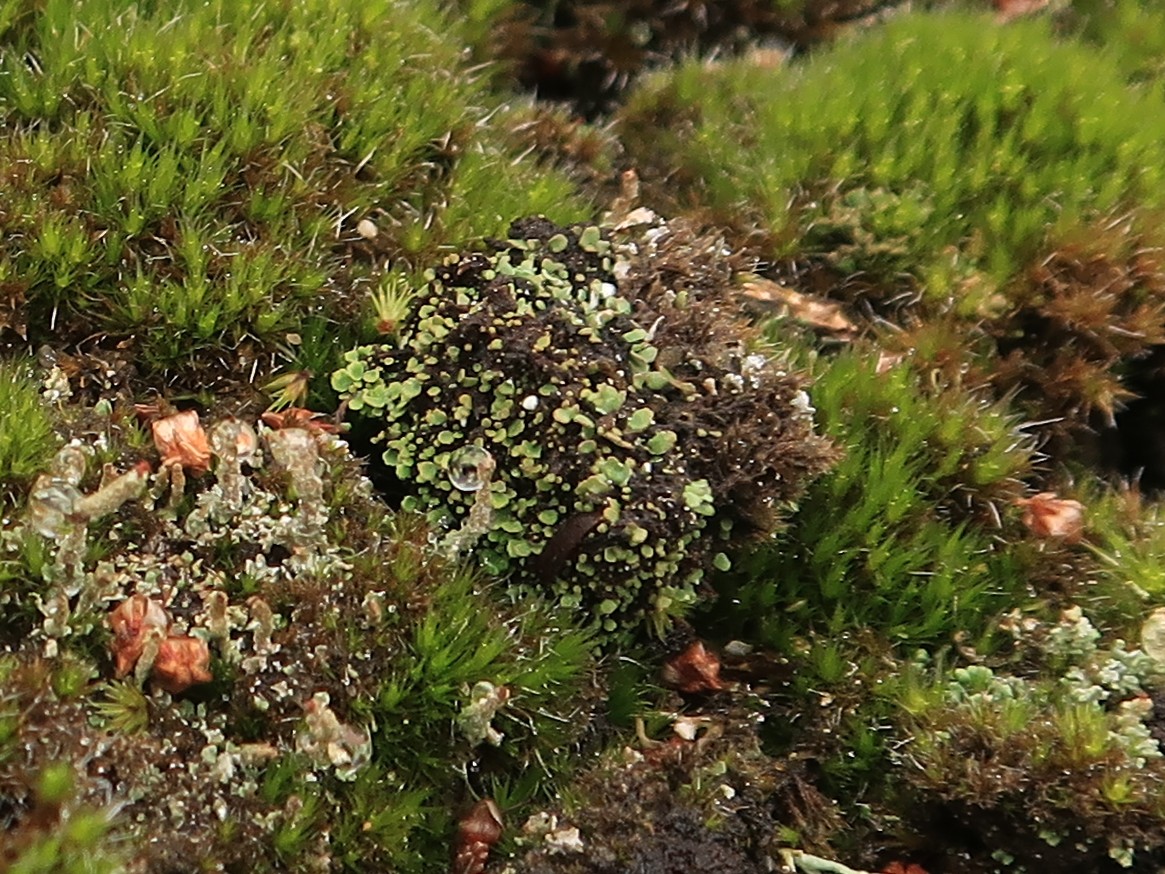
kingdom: Fungi
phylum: Ascomycota
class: Lecanoromycetes
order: Lecanorales
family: Cladoniaceae
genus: Cladonia
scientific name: Cladonia
